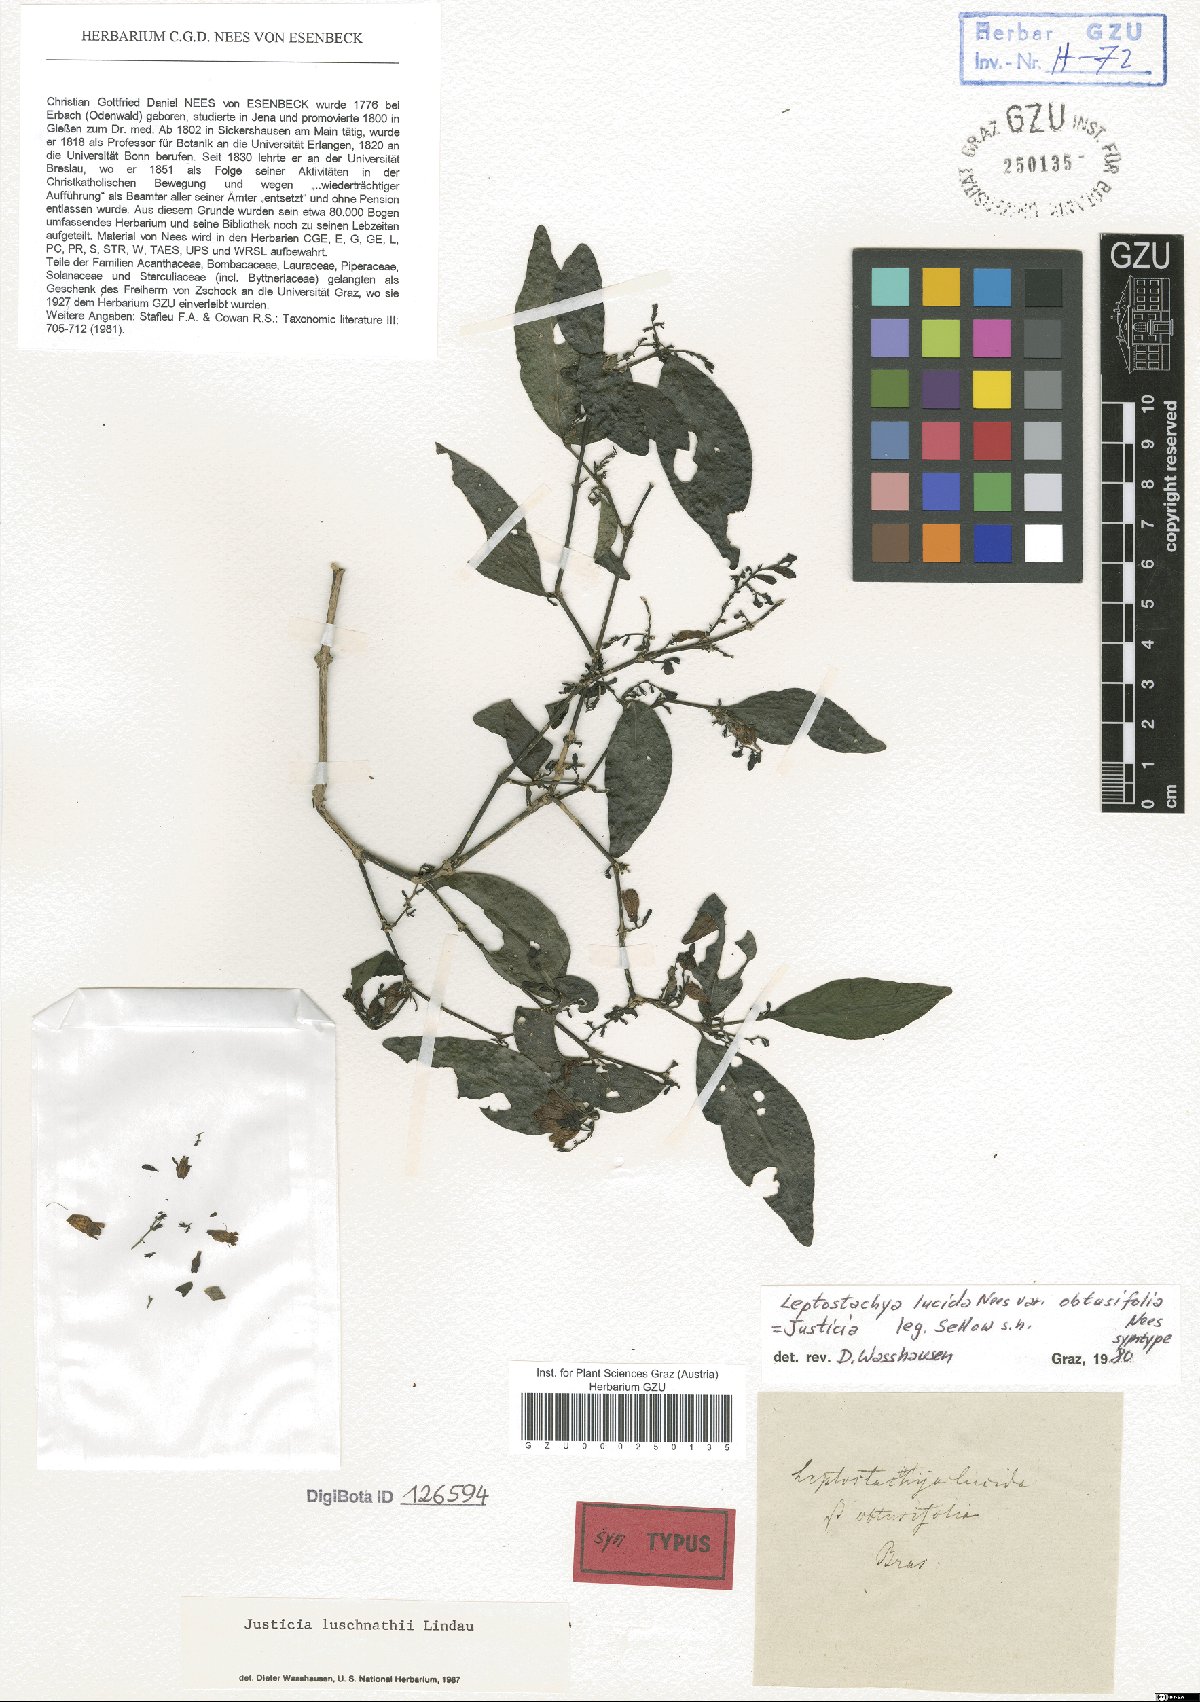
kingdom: Plantae
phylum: Tracheophyta
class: Magnoliopsida
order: Lamiales
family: Acanthaceae
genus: Justicia
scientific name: Justicia luschnathii
